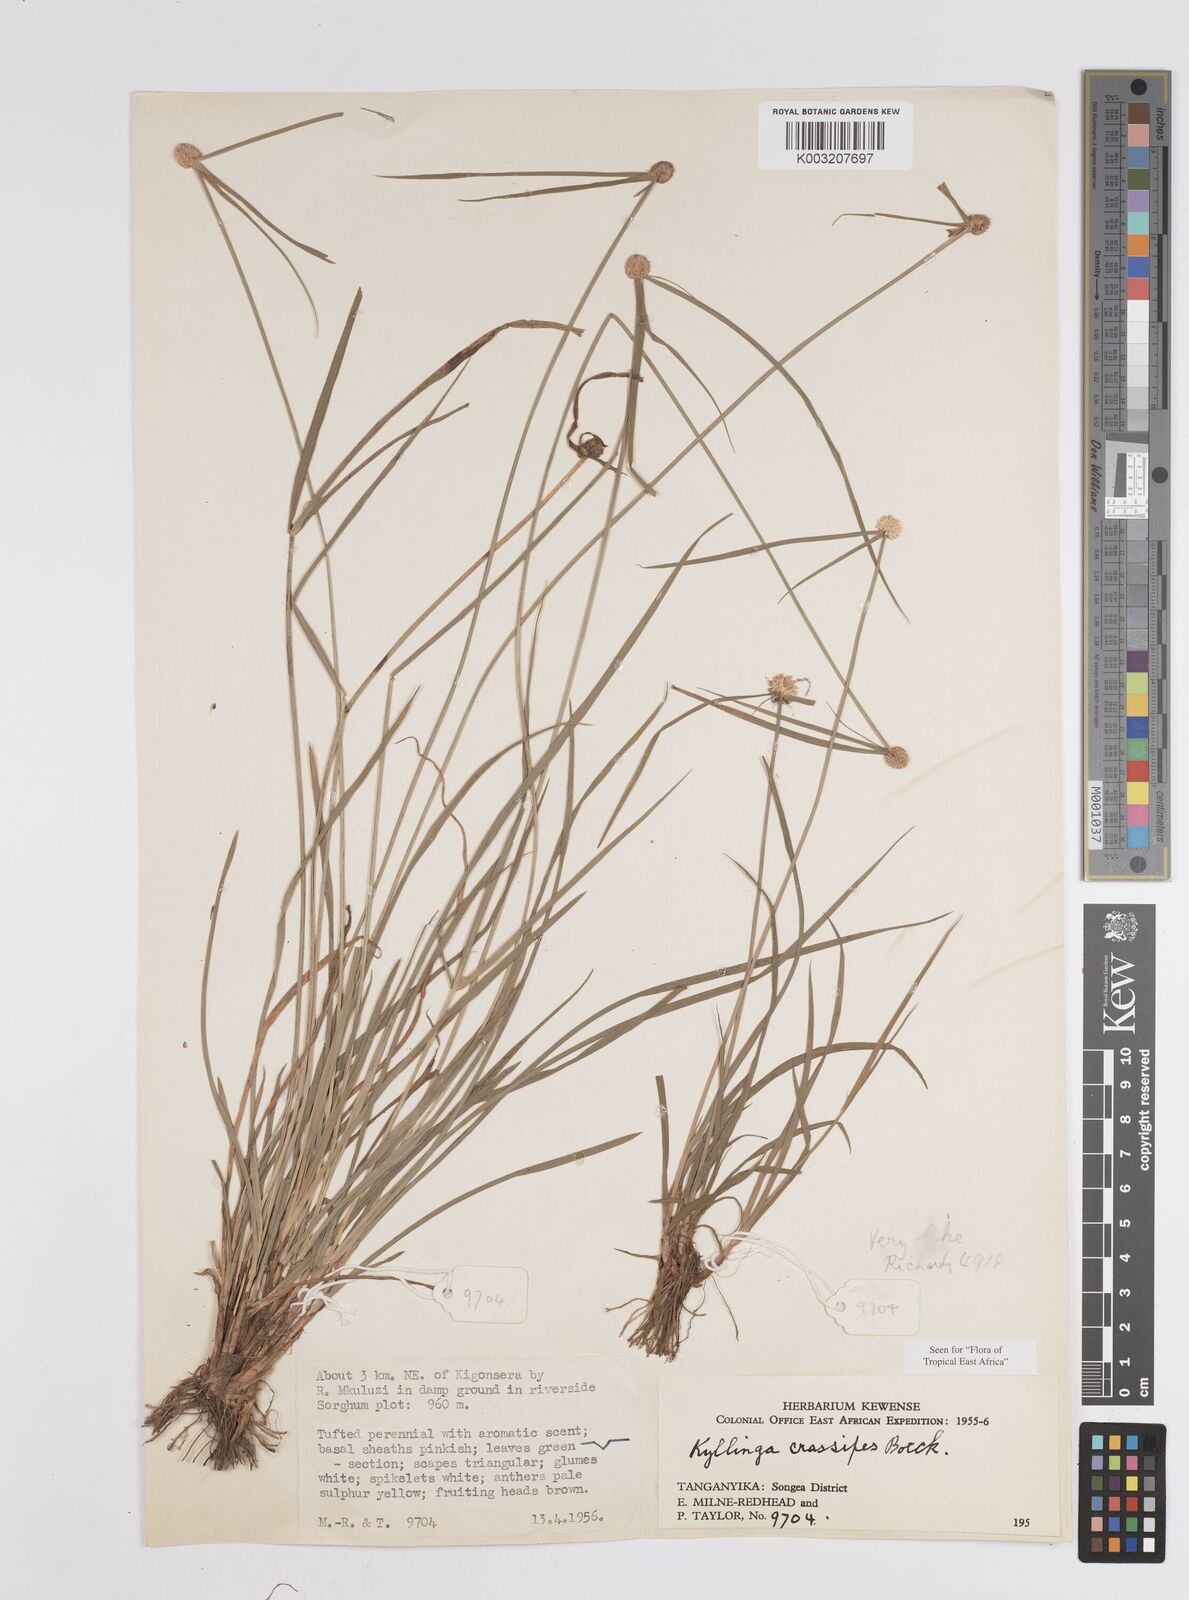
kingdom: Plantae
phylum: Tracheophyta
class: Liliopsida
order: Poales
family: Cyperaceae
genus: Cyperus
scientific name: Cyperus crassipes
